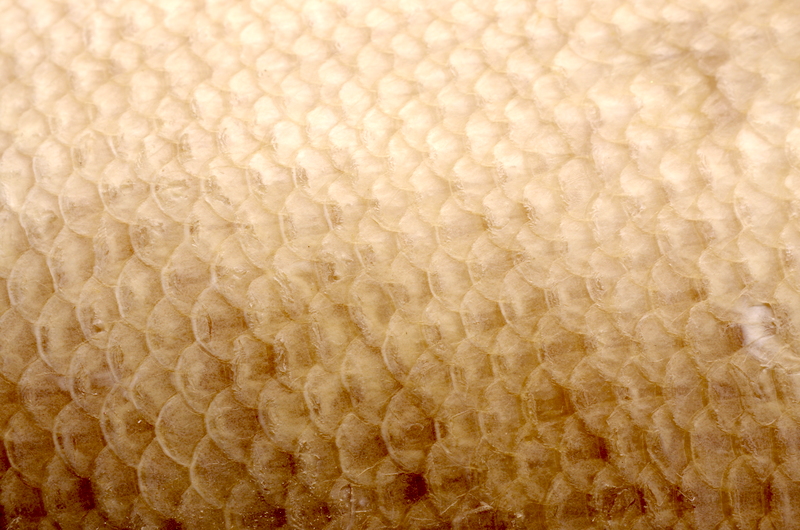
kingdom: Animalia
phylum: Chordata
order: Perciformes
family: Cichlidae
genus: Crenicichla
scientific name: Crenicichla monicae
